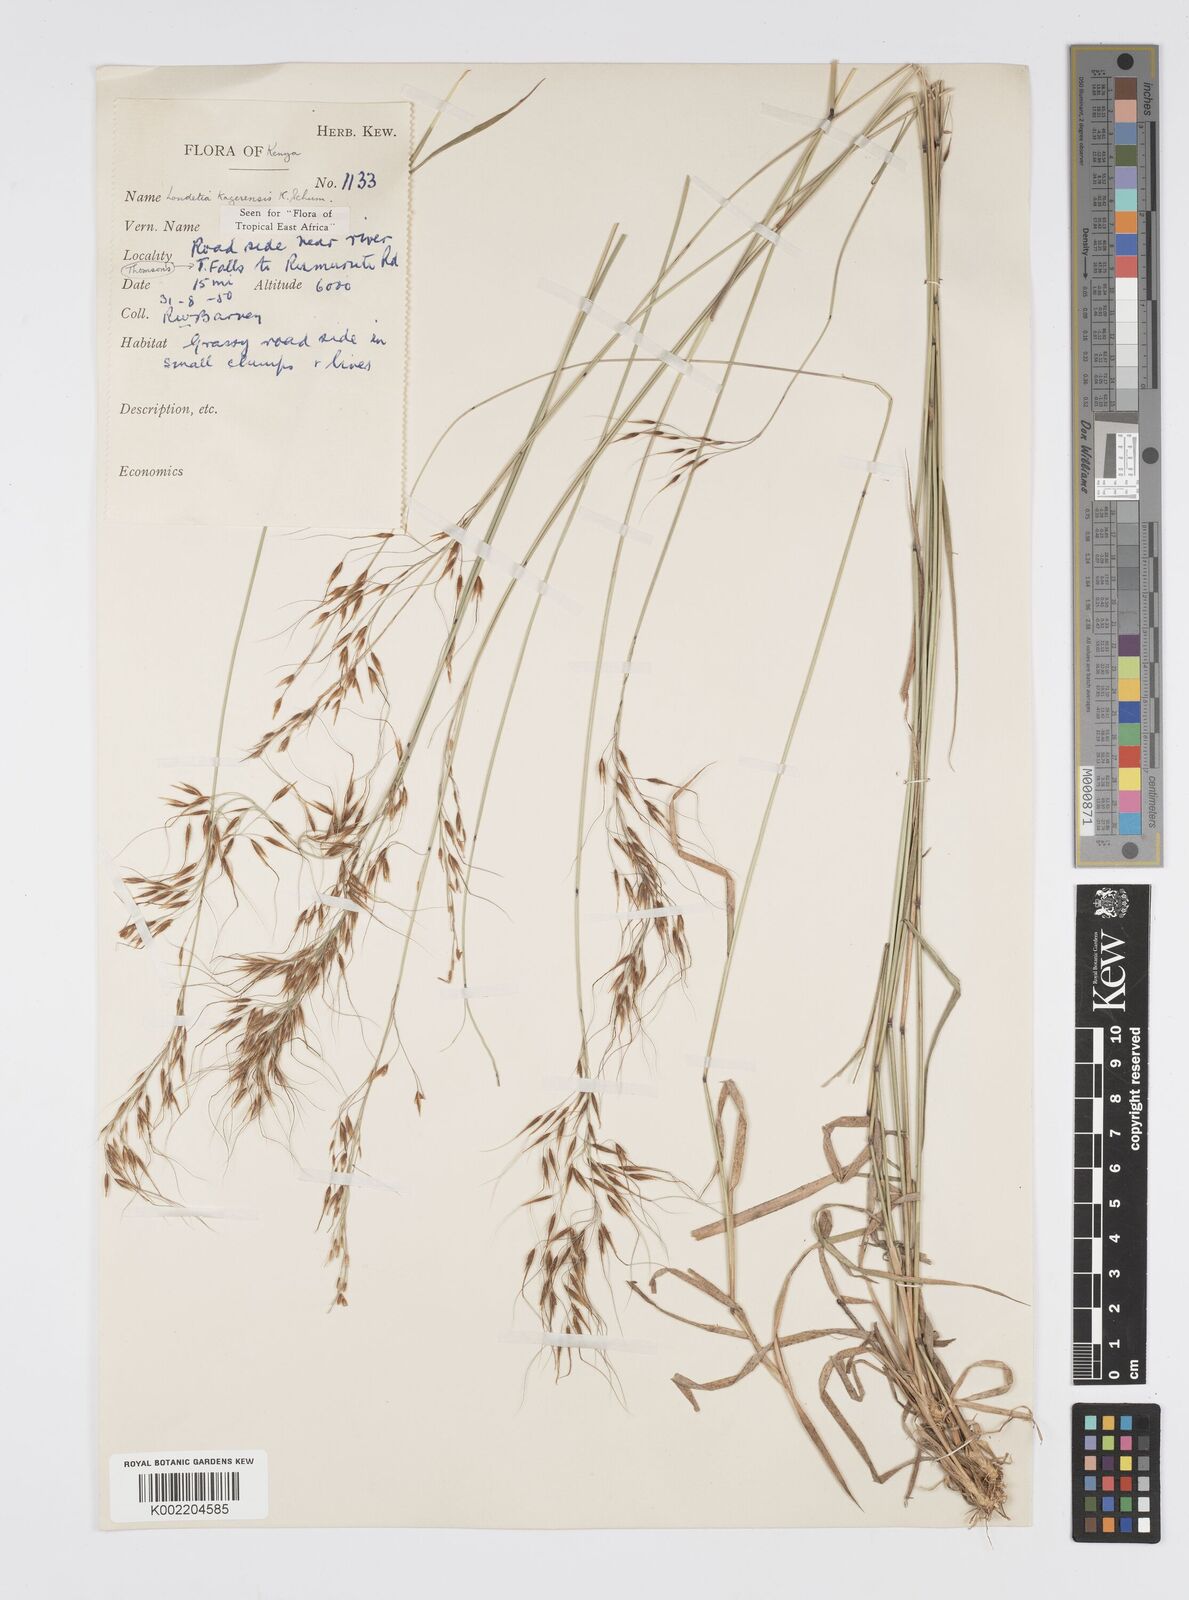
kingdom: Plantae
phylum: Tracheophyta
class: Liliopsida
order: Poales
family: Poaceae
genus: Loudetia
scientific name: Loudetia kagerensis
